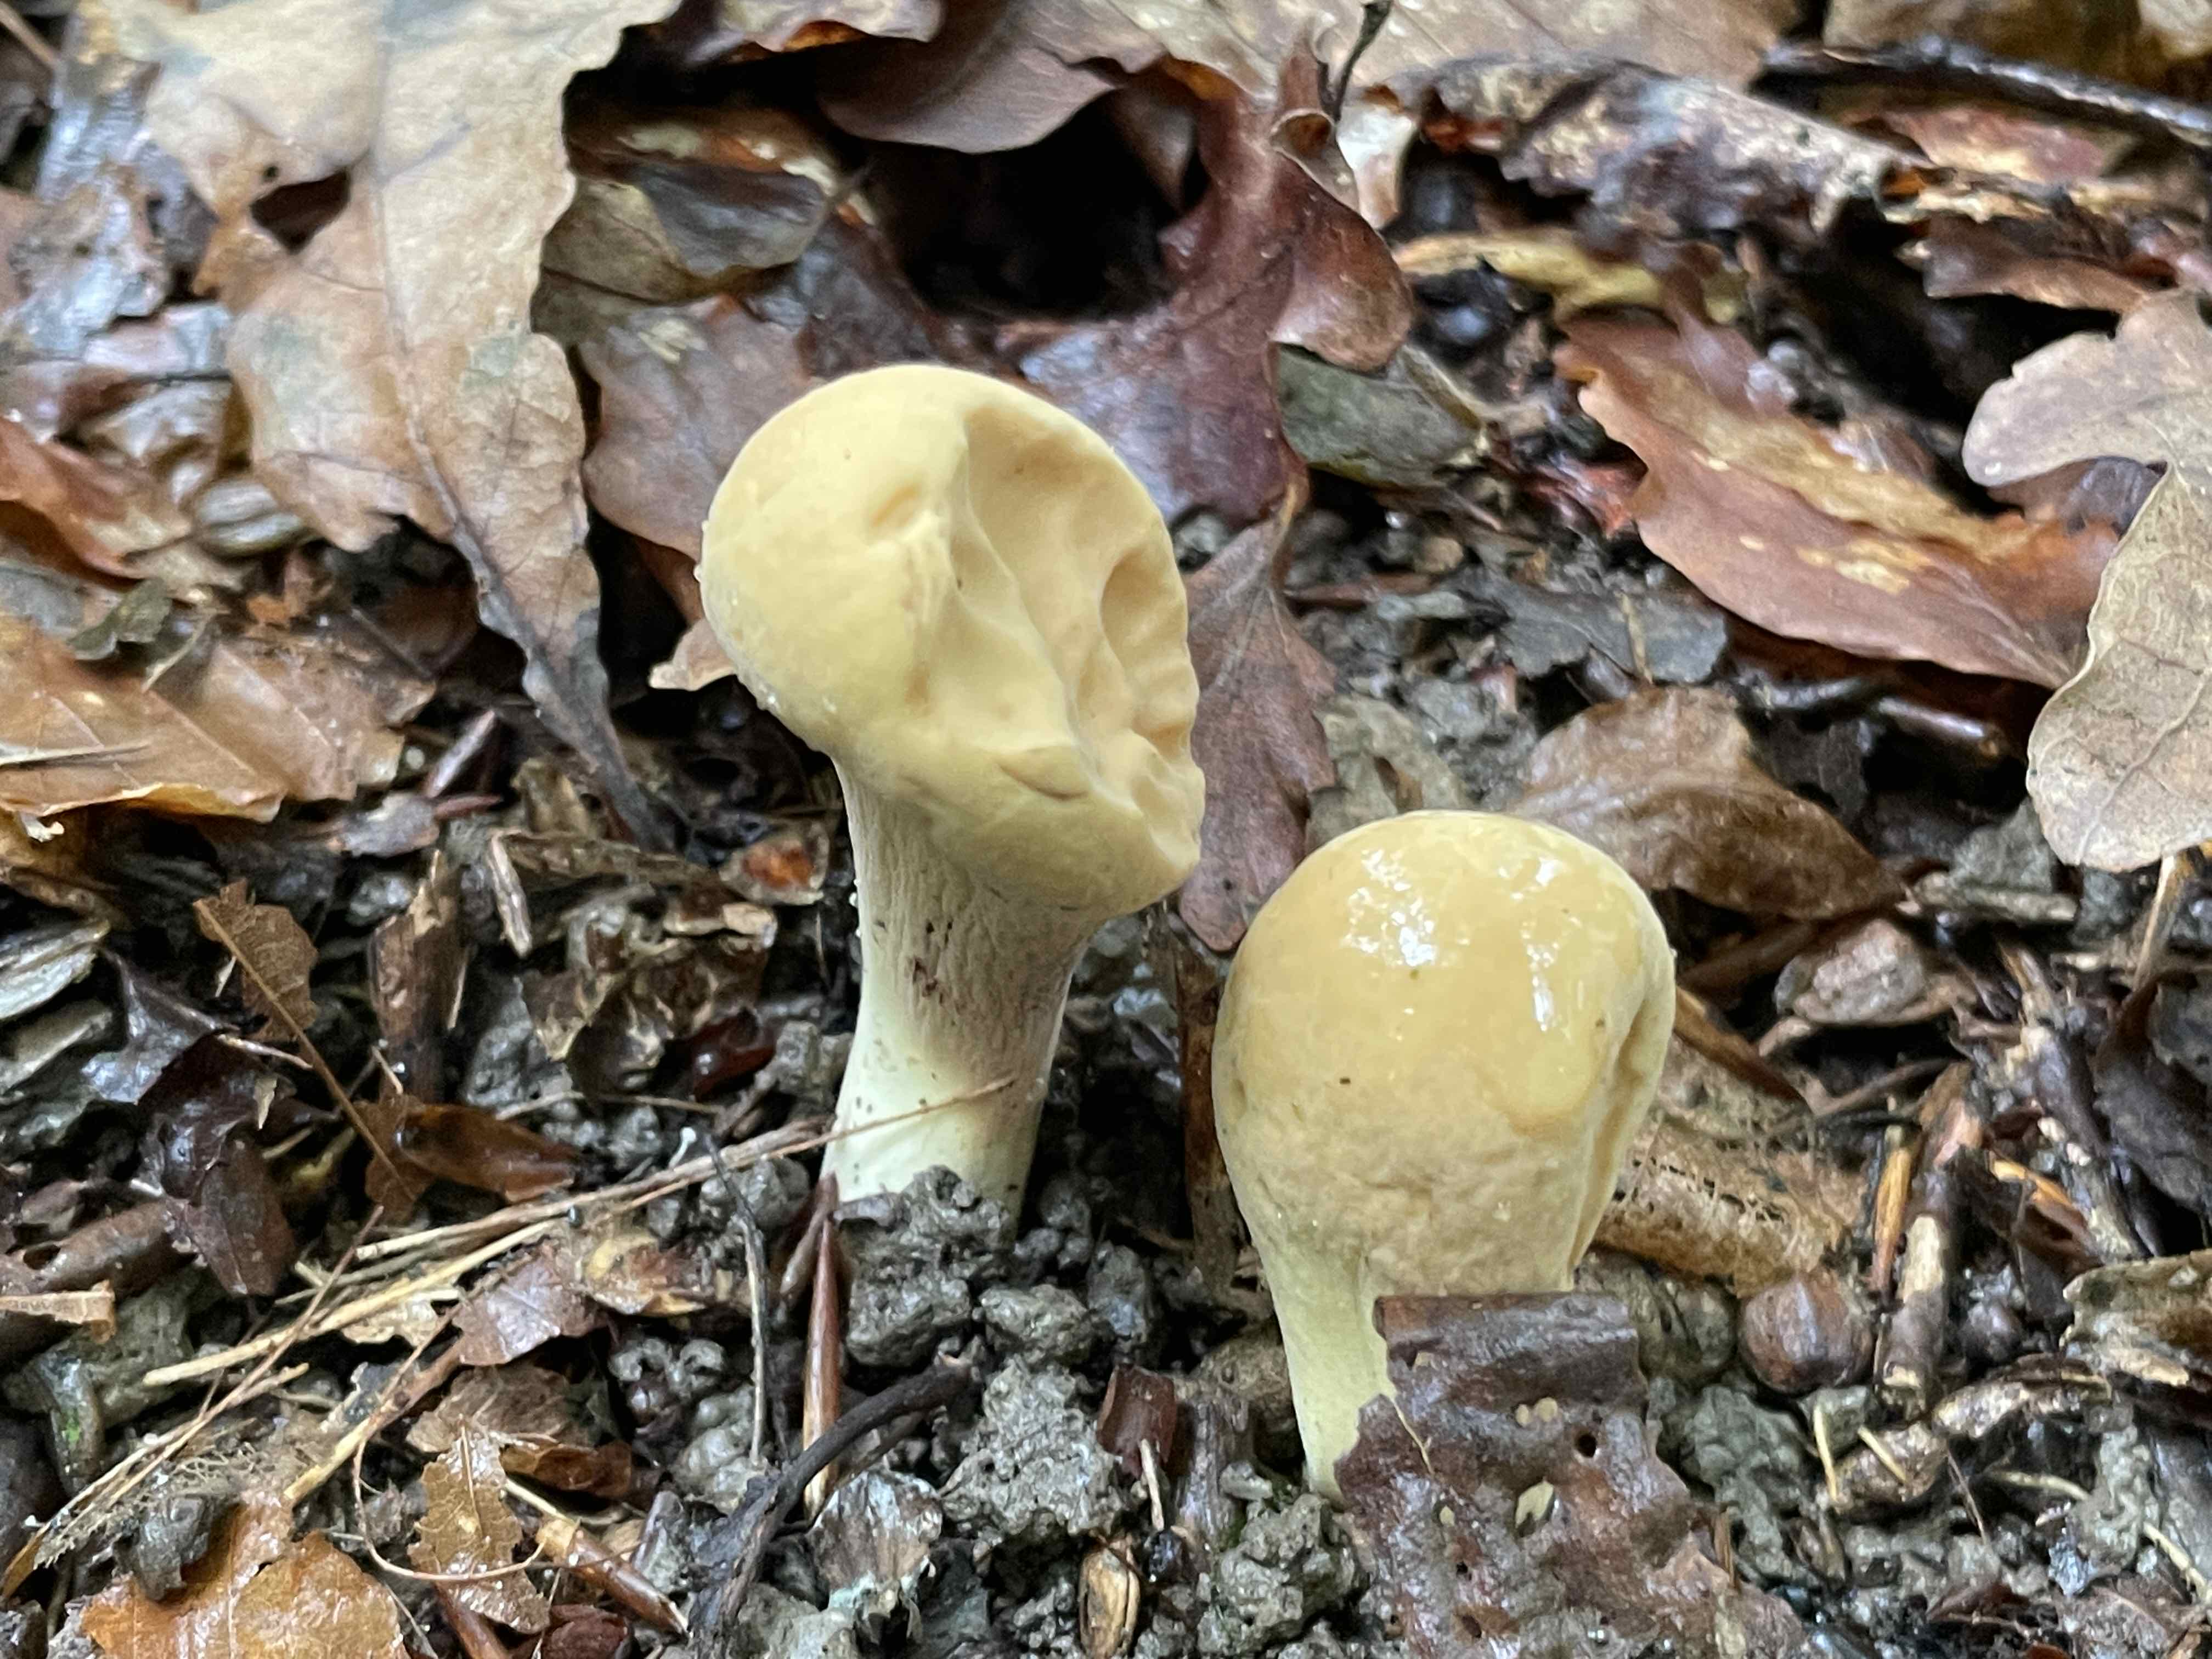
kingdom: Fungi
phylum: Basidiomycota
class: Agaricomycetes
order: Gomphales
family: Clavariadelphaceae
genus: Clavariadelphus
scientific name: Clavariadelphus pistillaris
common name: herkules-kæmpekølle
